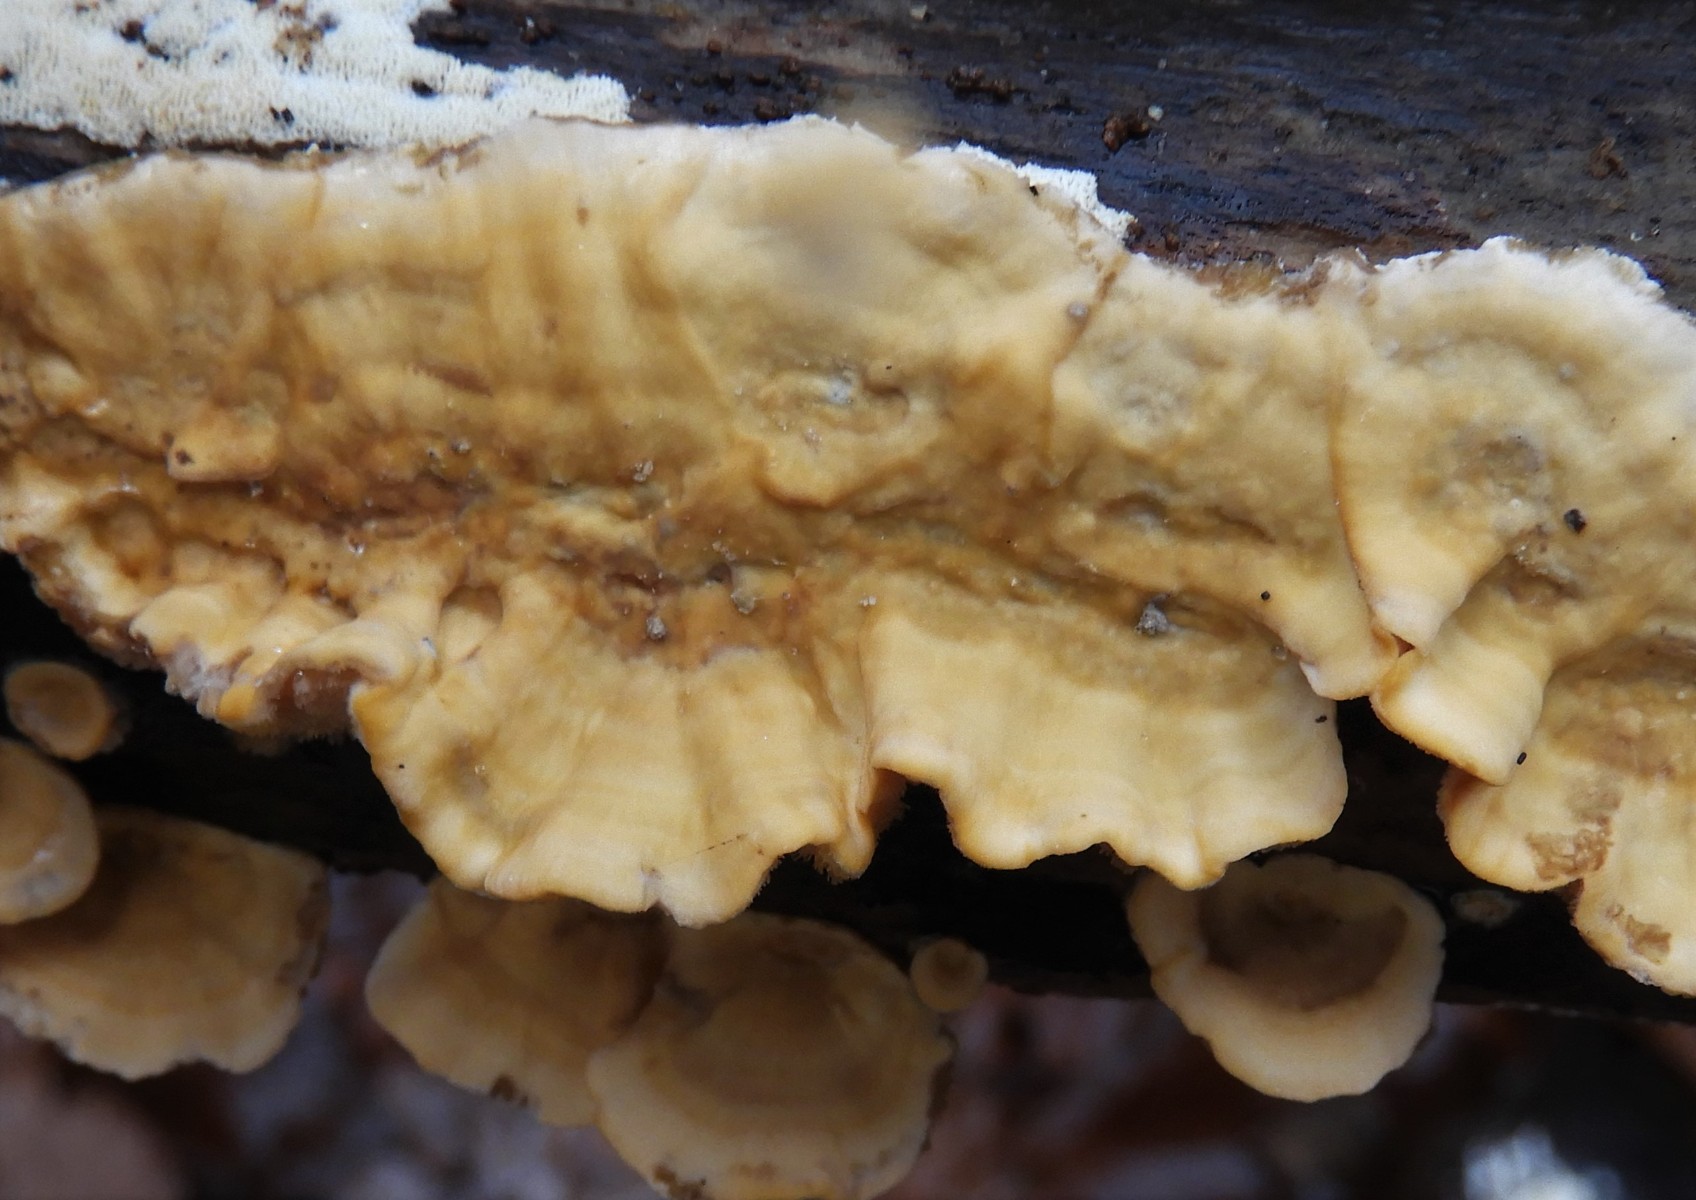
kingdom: Fungi
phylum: Basidiomycota
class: Agaricomycetes
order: Russulales
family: Stereaceae
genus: Stereum
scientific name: Stereum hirsutum
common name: håret lædersvamp
